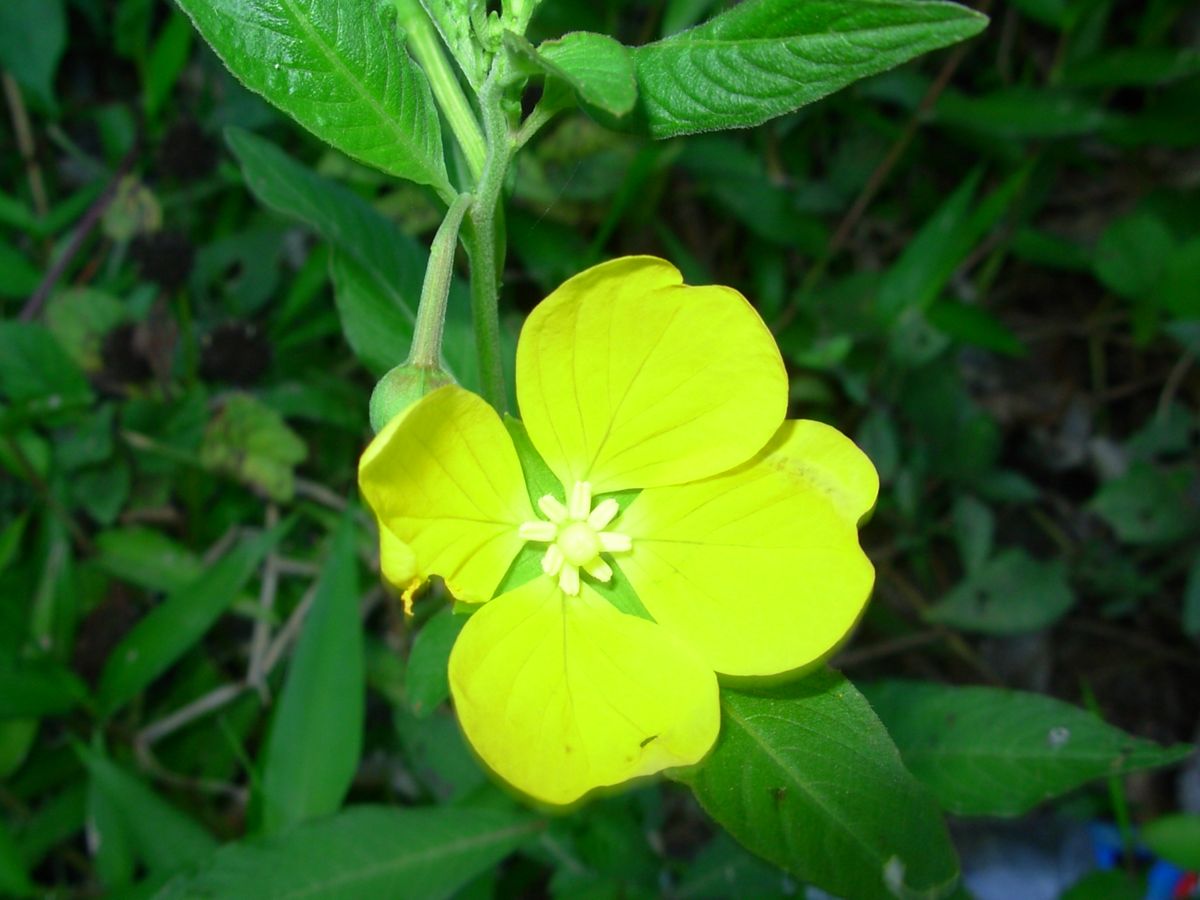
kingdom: Plantae
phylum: Tracheophyta
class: Magnoliopsida
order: Myrtales
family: Onagraceae
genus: Ludwigia
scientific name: Ludwigia octovalvis
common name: Water-primrose
